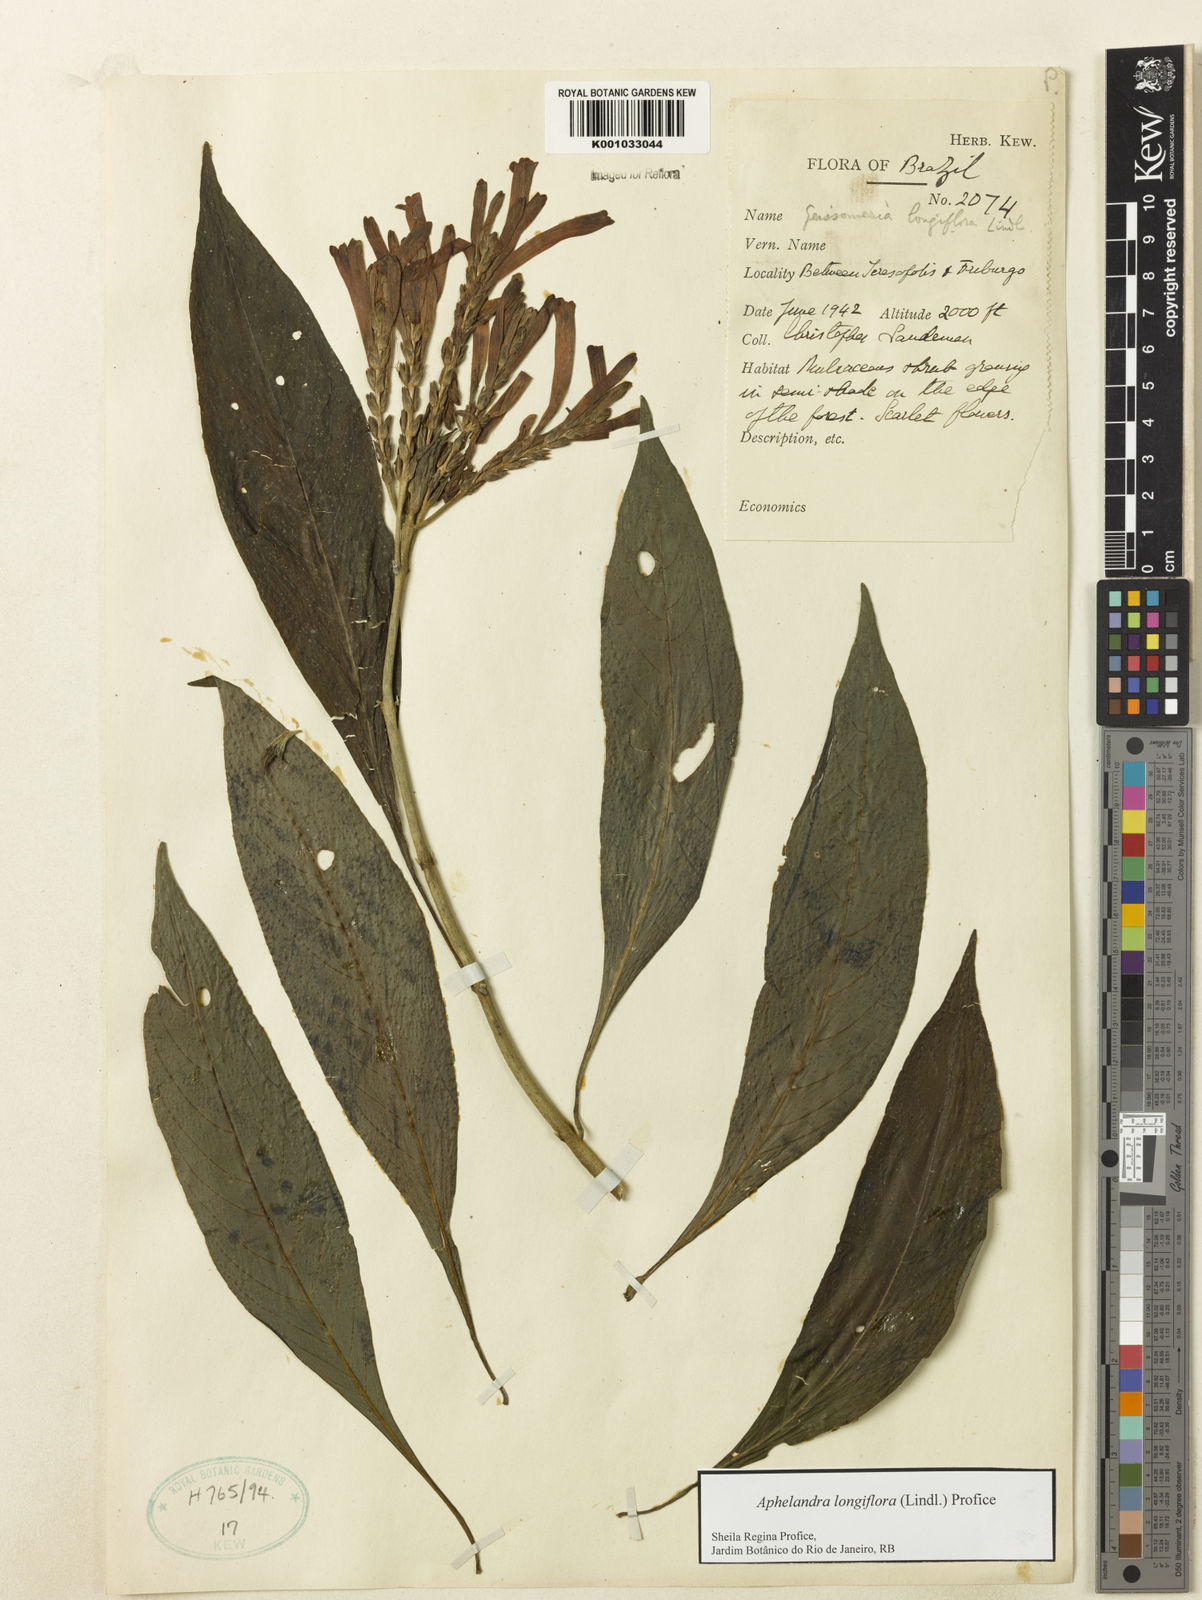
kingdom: Plantae
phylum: Tracheophyta
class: Magnoliopsida
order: Lamiales
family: Acanthaceae
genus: Aphelandra
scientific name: Aphelandra longiflora
